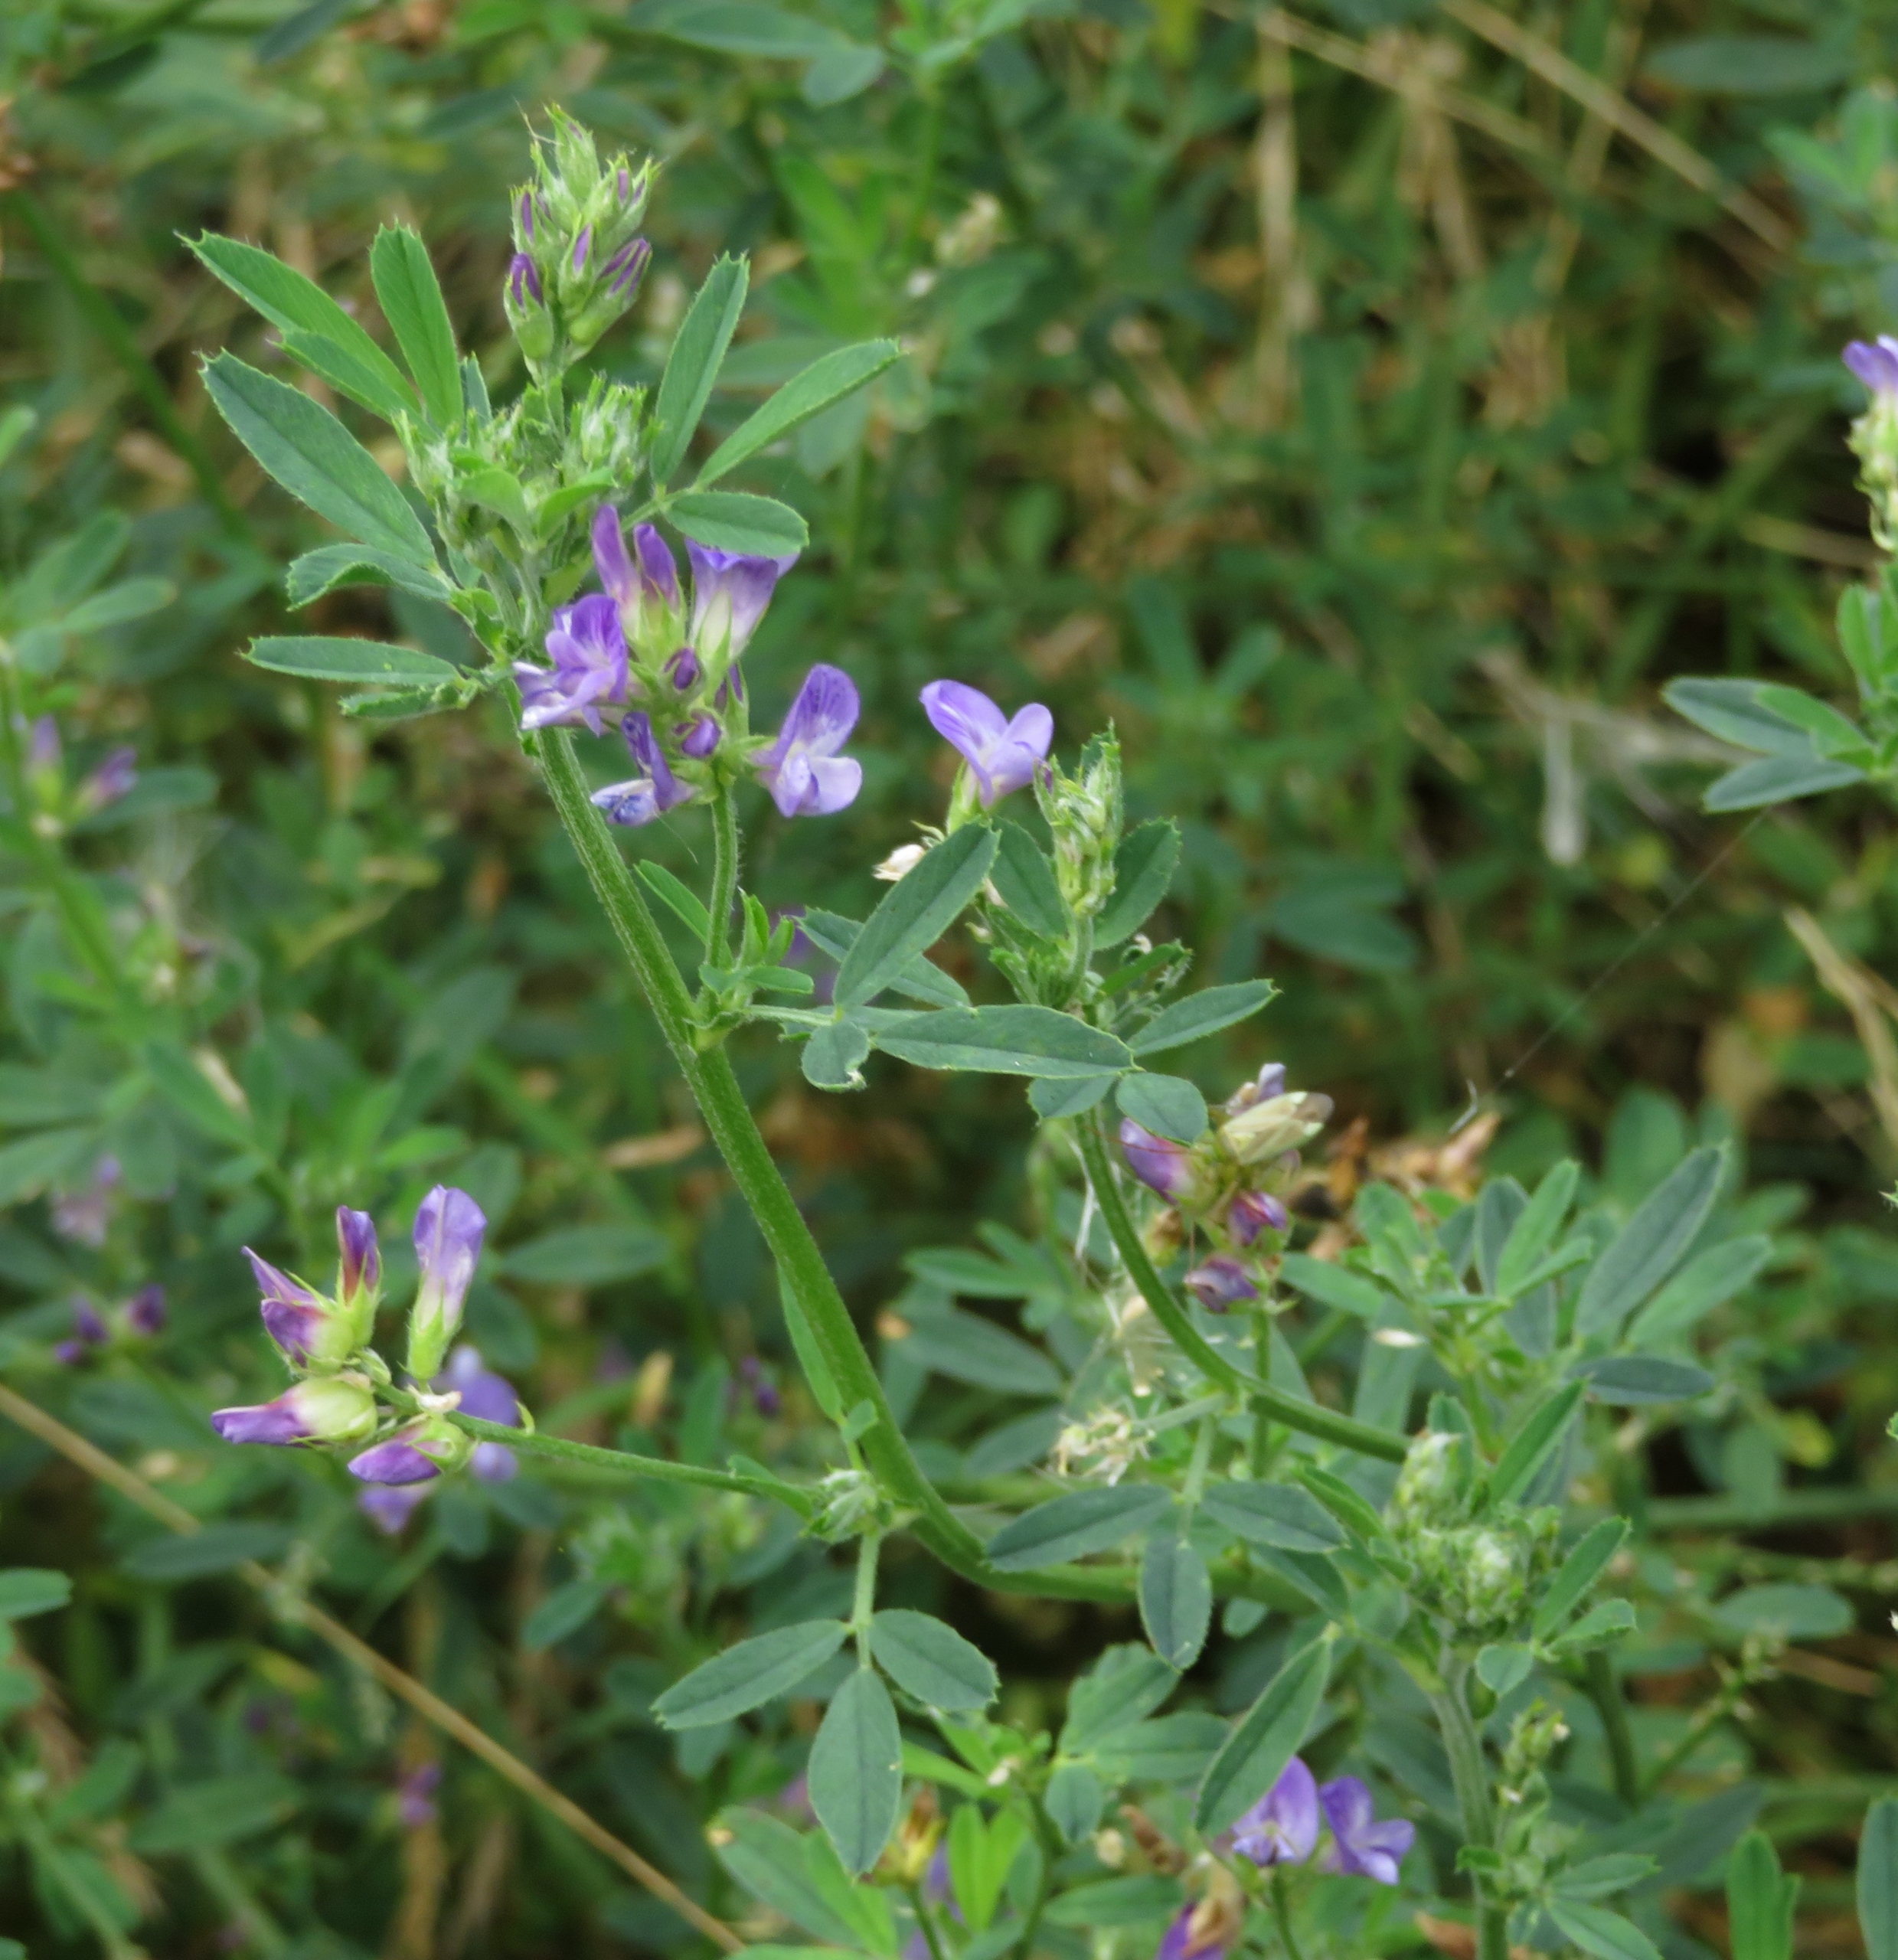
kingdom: Plantae
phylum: Tracheophyta
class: Magnoliopsida
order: Fabales
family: Fabaceae
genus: Medicago
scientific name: Medicago sativa
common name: Foderlucerne
